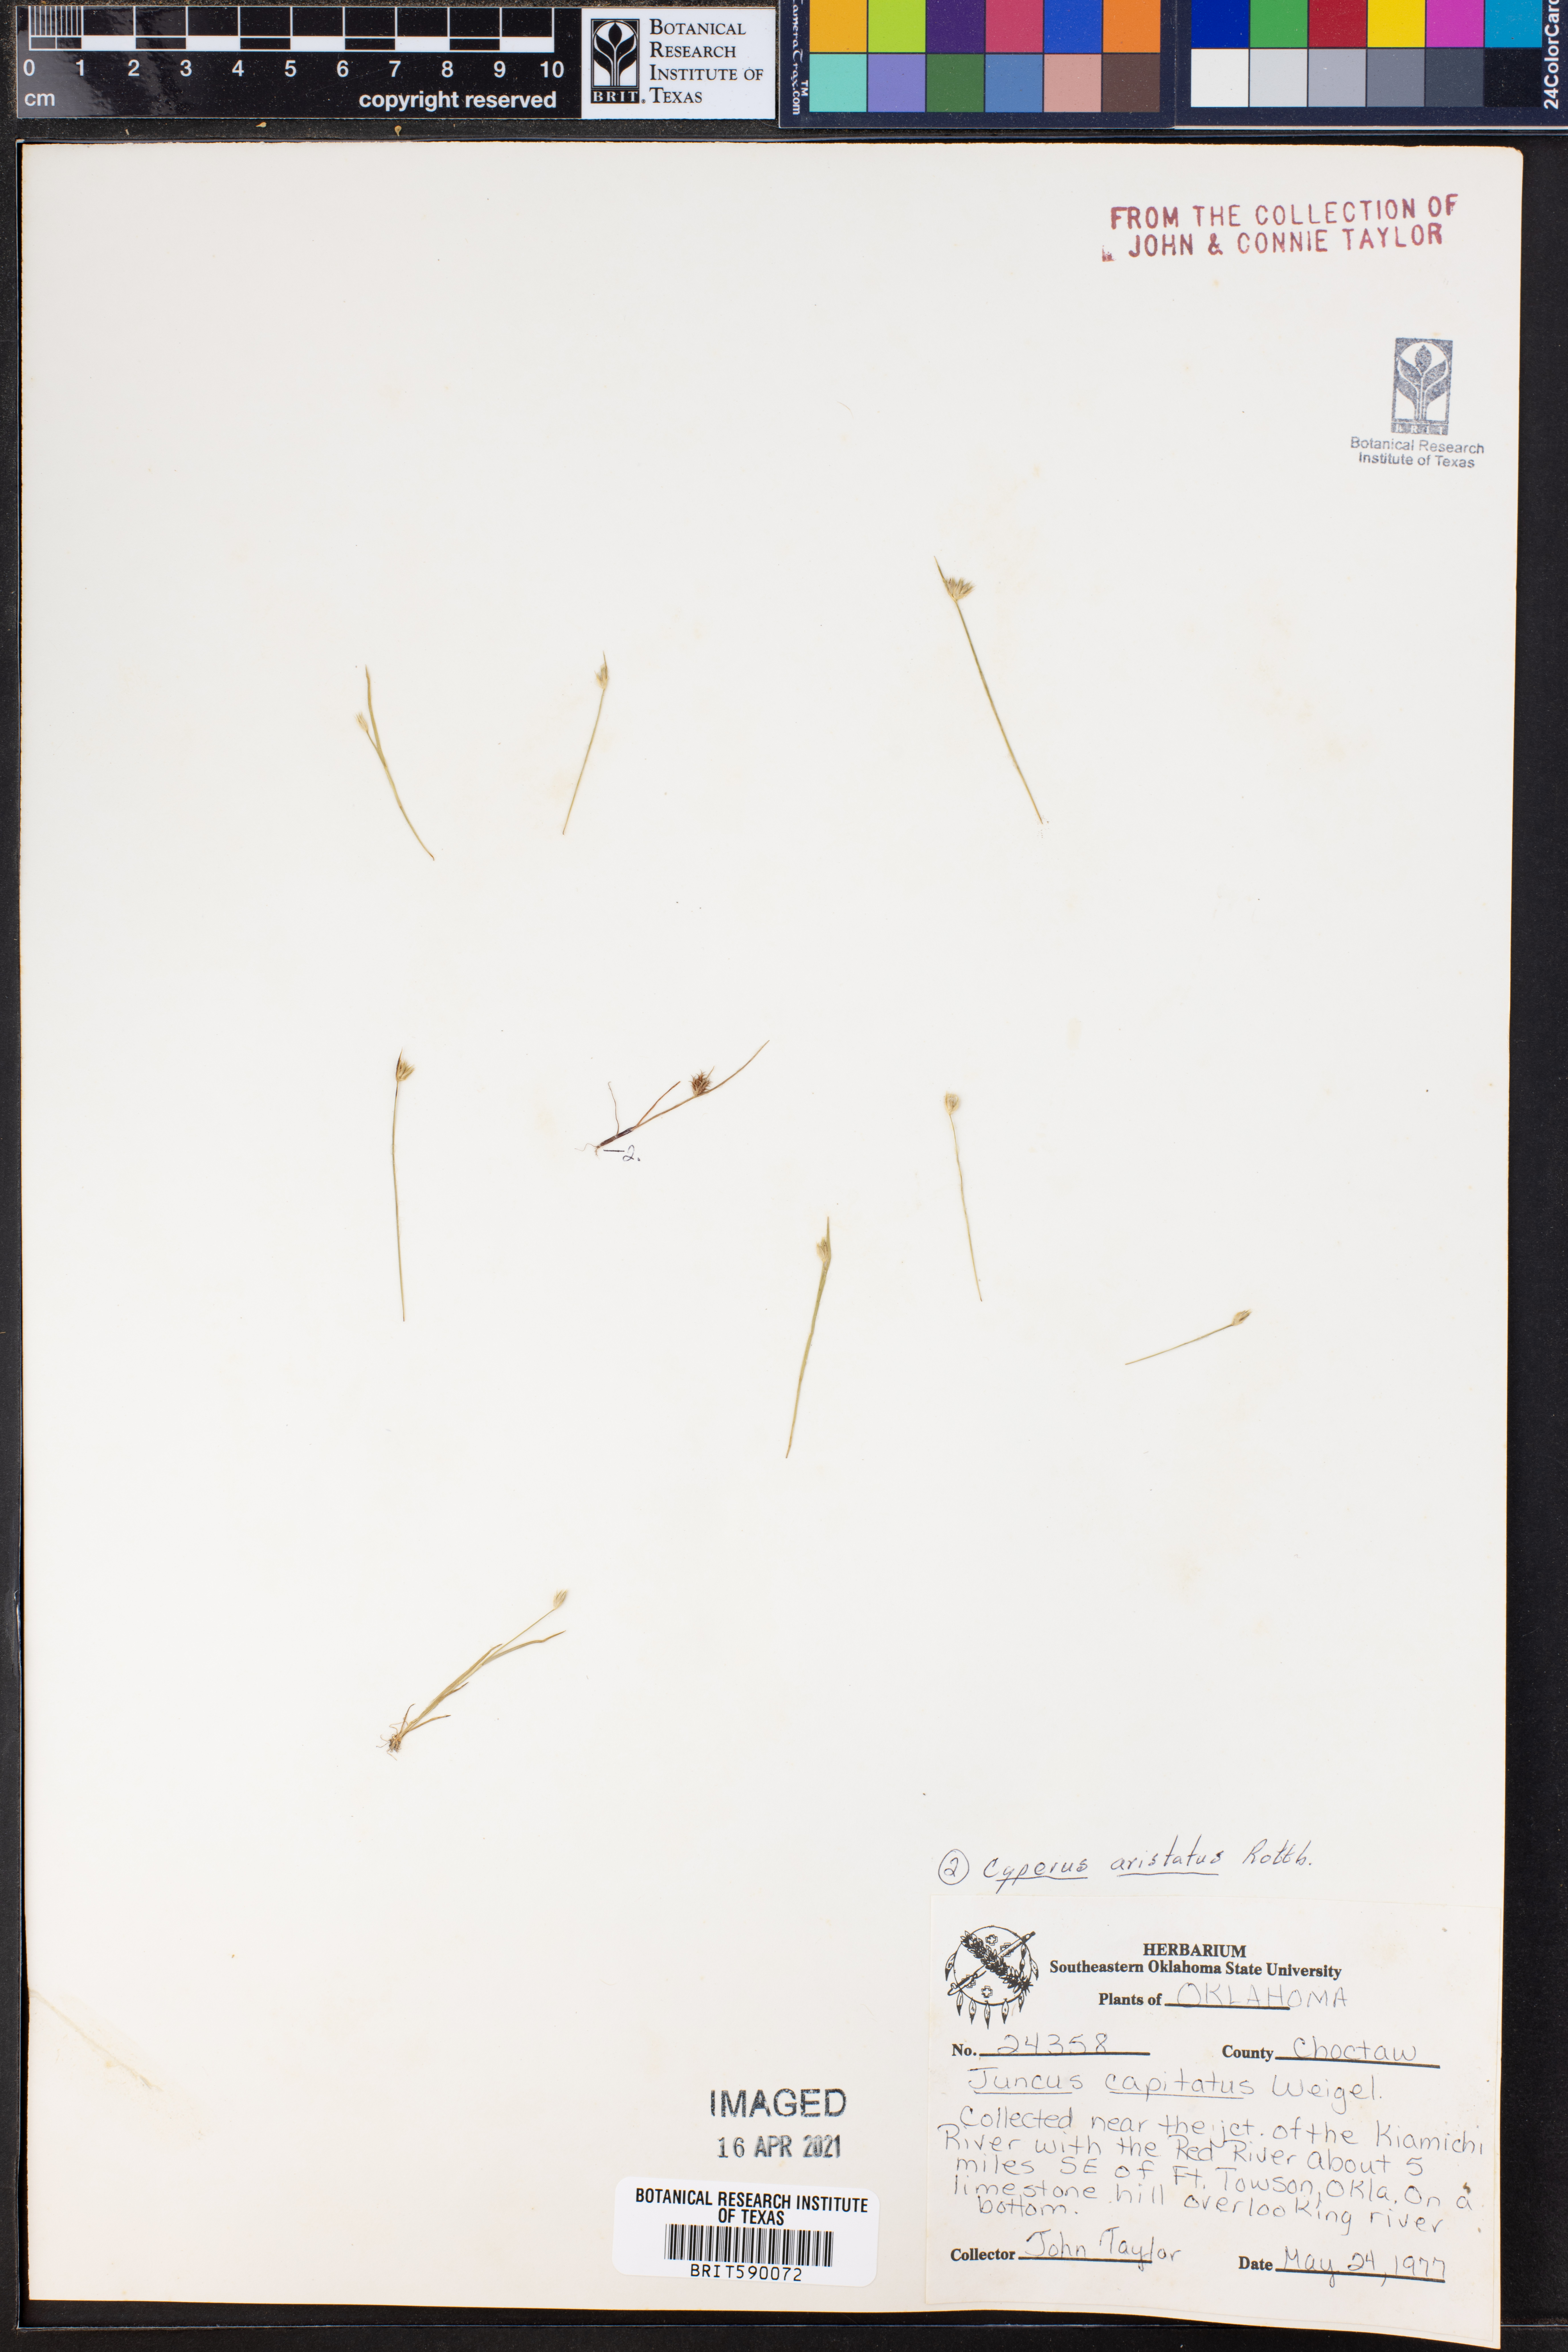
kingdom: Plantae
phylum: Tracheophyta
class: Liliopsida
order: Poales
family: Juncaceae
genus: Juncus
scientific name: Juncus capitatus
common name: Dwarf rush
